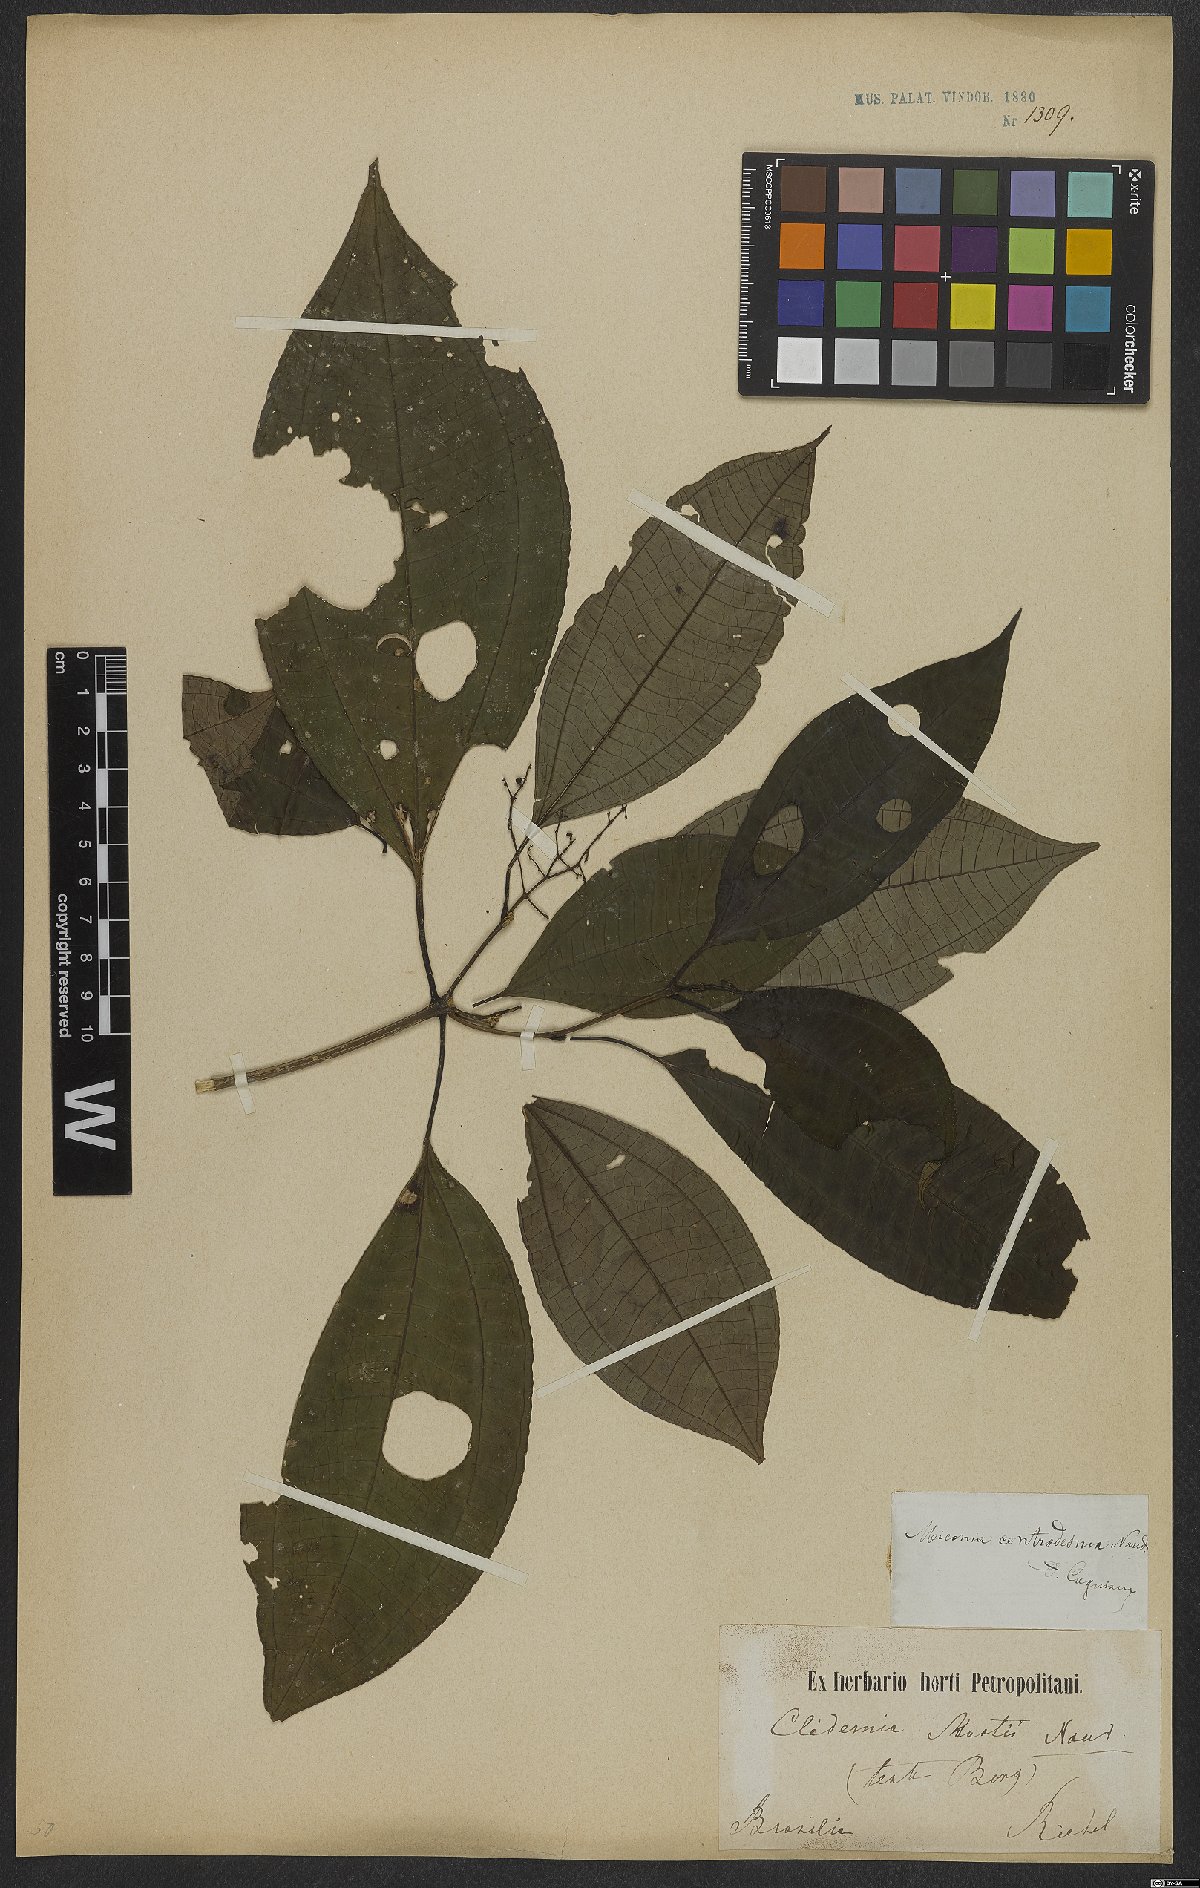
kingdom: Plantae
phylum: Tracheophyta
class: Magnoliopsida
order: Myrtales
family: Melastomataceae
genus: Miconia
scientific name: Miconia centrodesma
